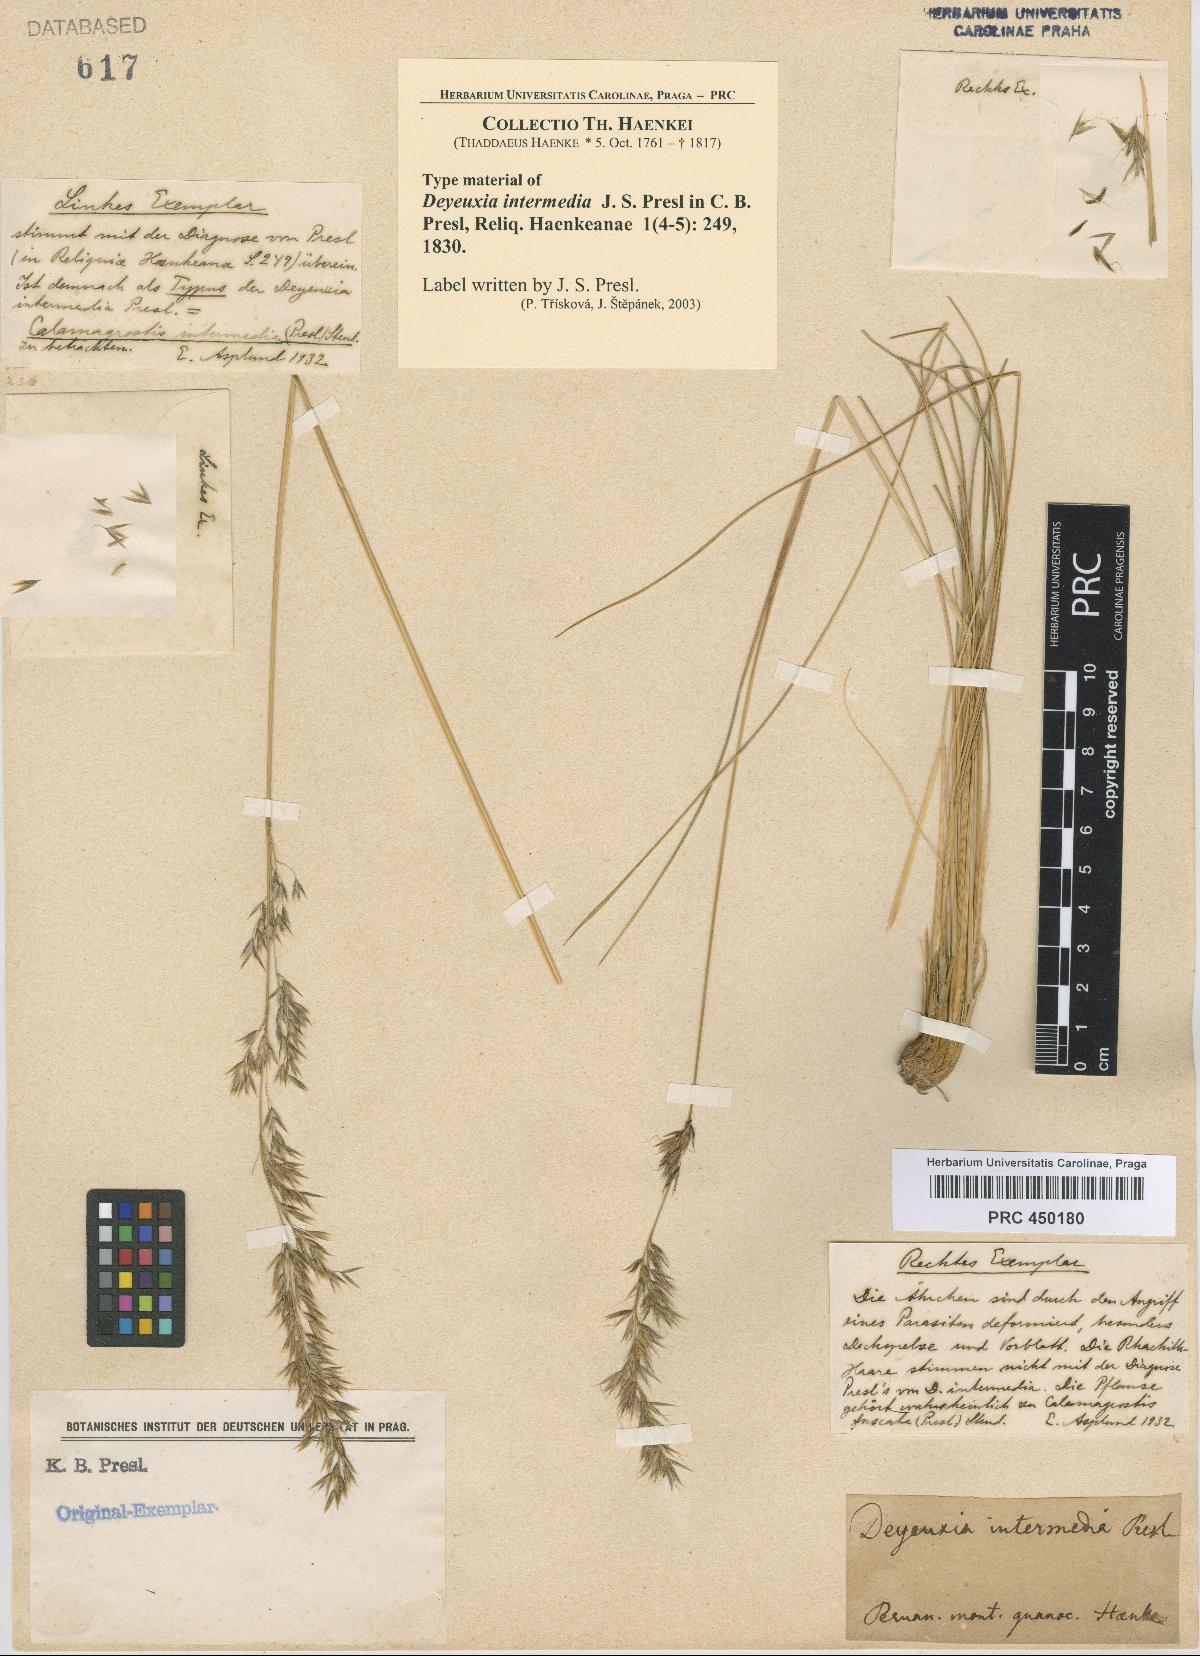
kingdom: Plantae
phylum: Tracheophyta
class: Liliopsida
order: Poales
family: Poaceae
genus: Cinnagrostis
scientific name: Cinnagrostis intermedia
